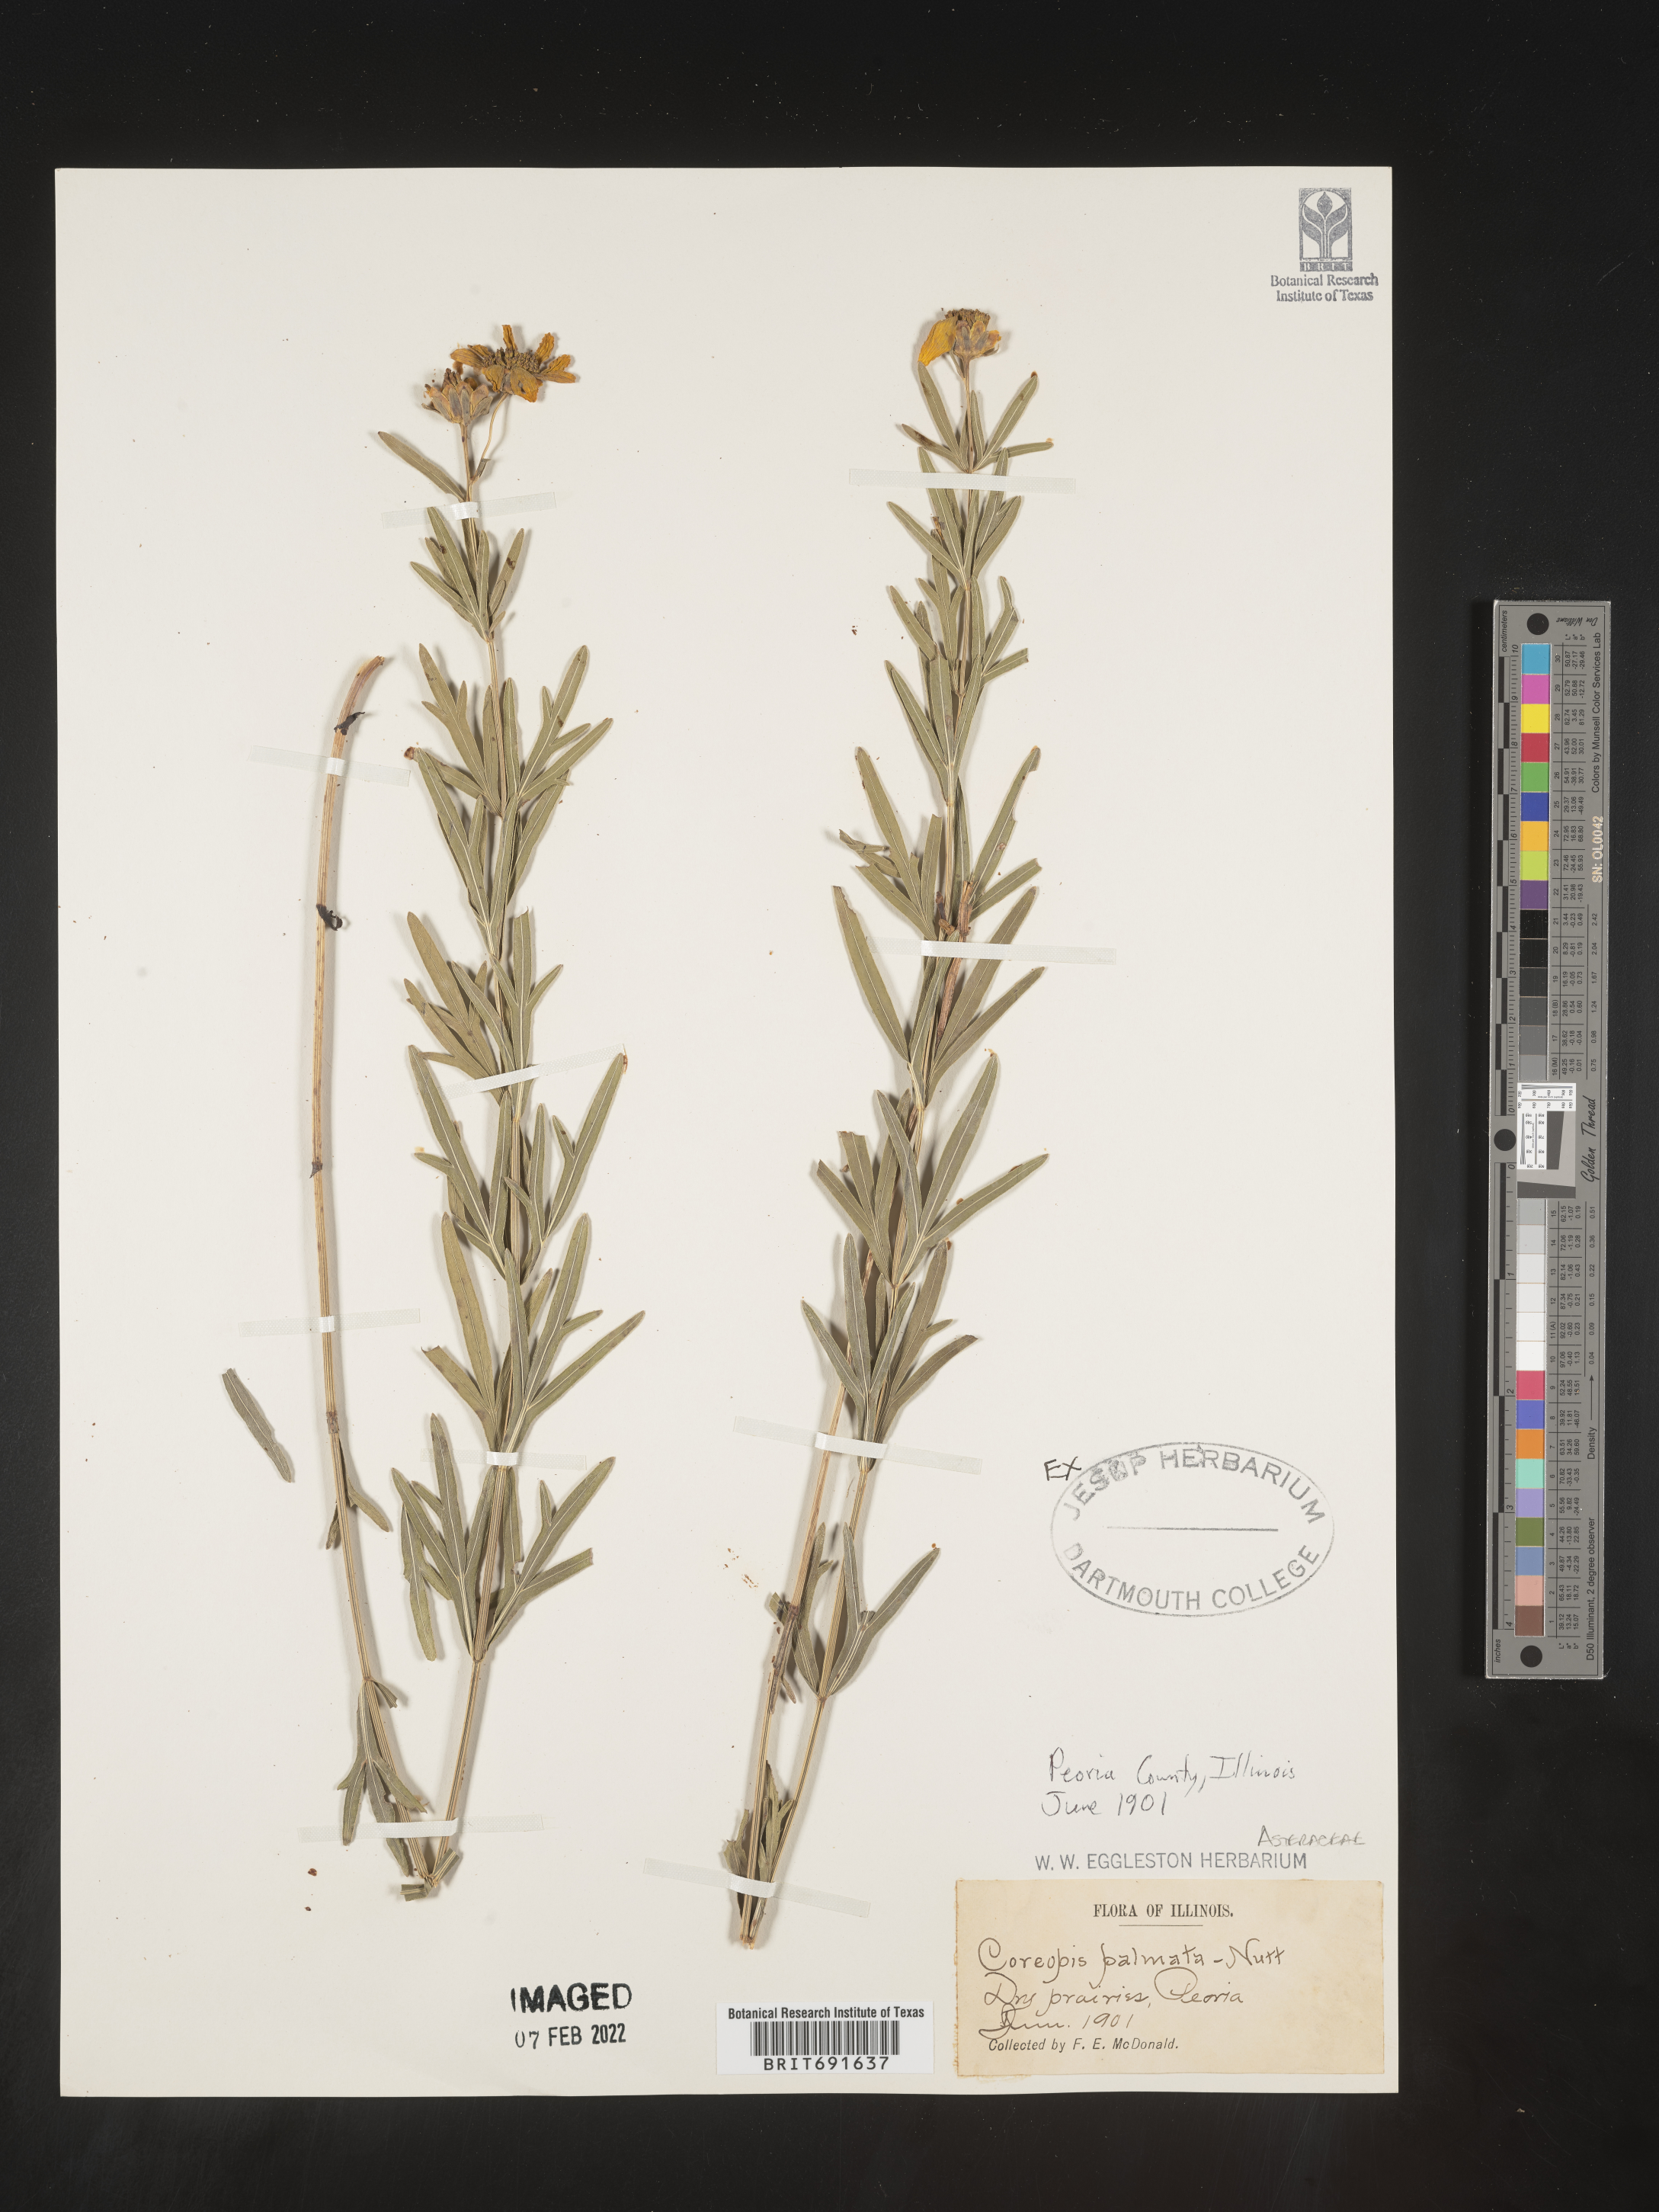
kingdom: Plantae
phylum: Tracheophyta
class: Magnoliopsida
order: Asterales
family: Asteraceae
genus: Coreopsis
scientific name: Coreopsis palmata
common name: Prairie coreopsis
